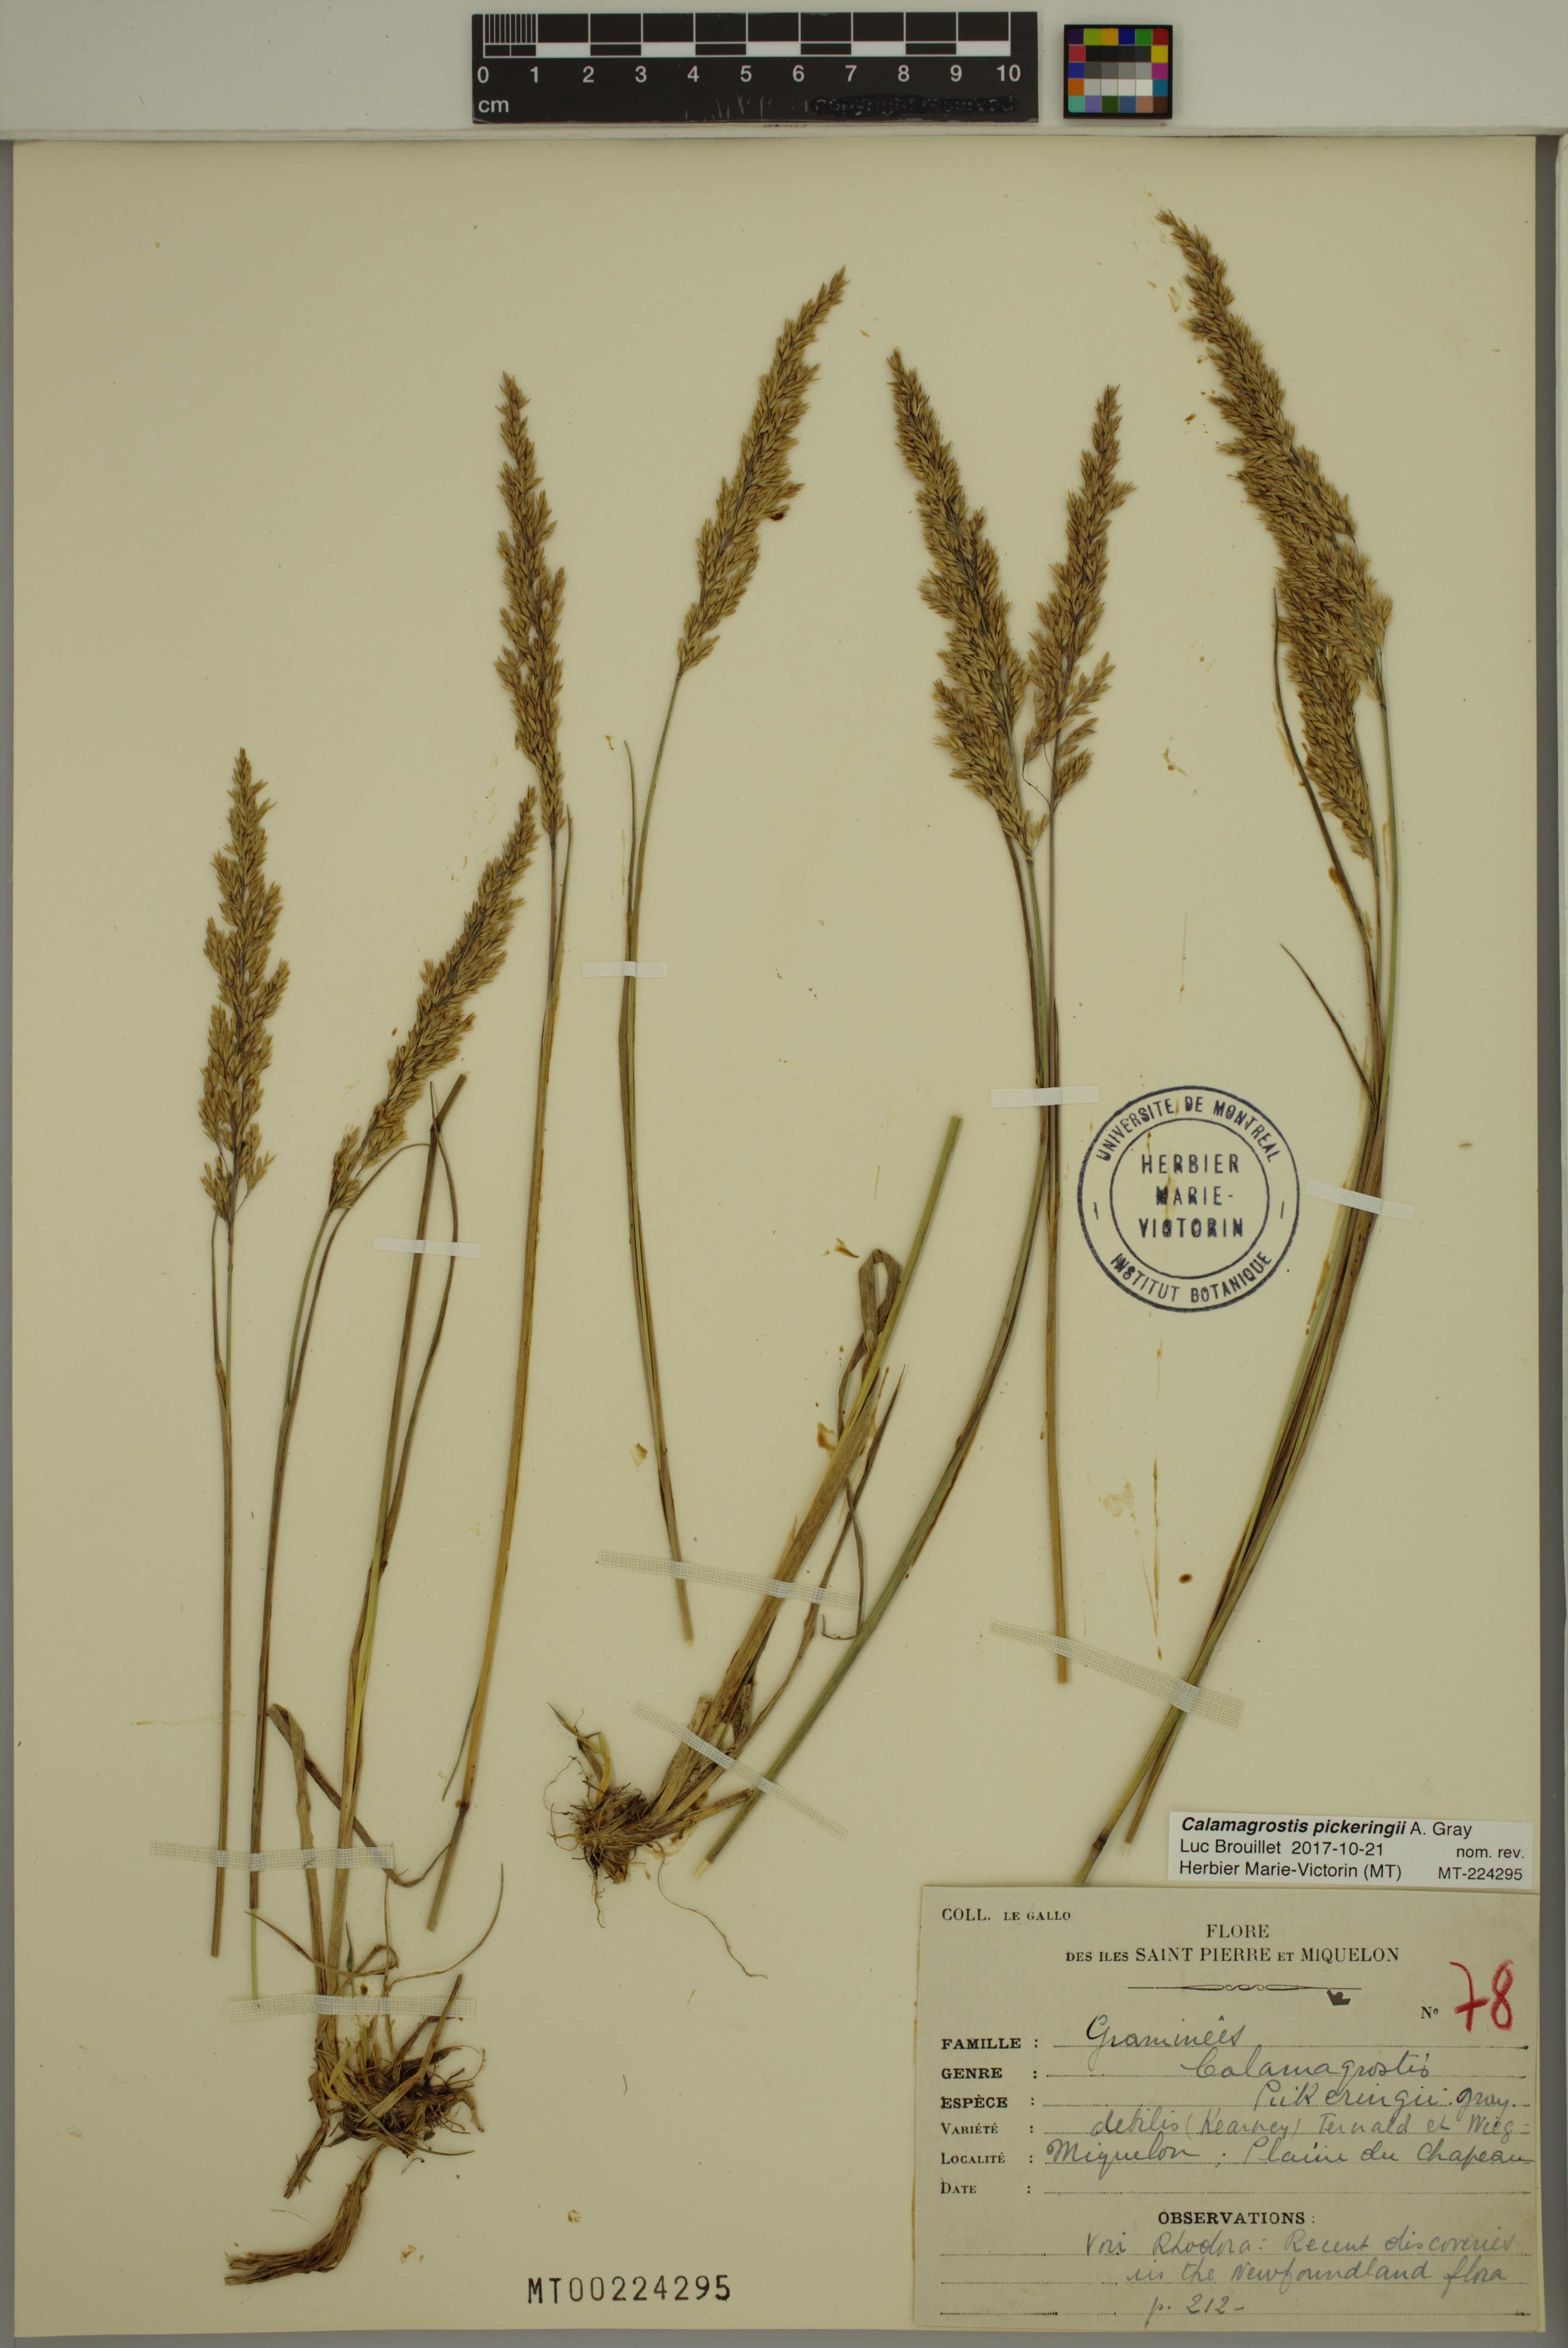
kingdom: Plantae
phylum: Tracheophyta
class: Liliopsida
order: Poales
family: Poaceae
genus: Calamagrostis
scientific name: Calamagrostis pickeringii
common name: Pickering's reed bentgrass
